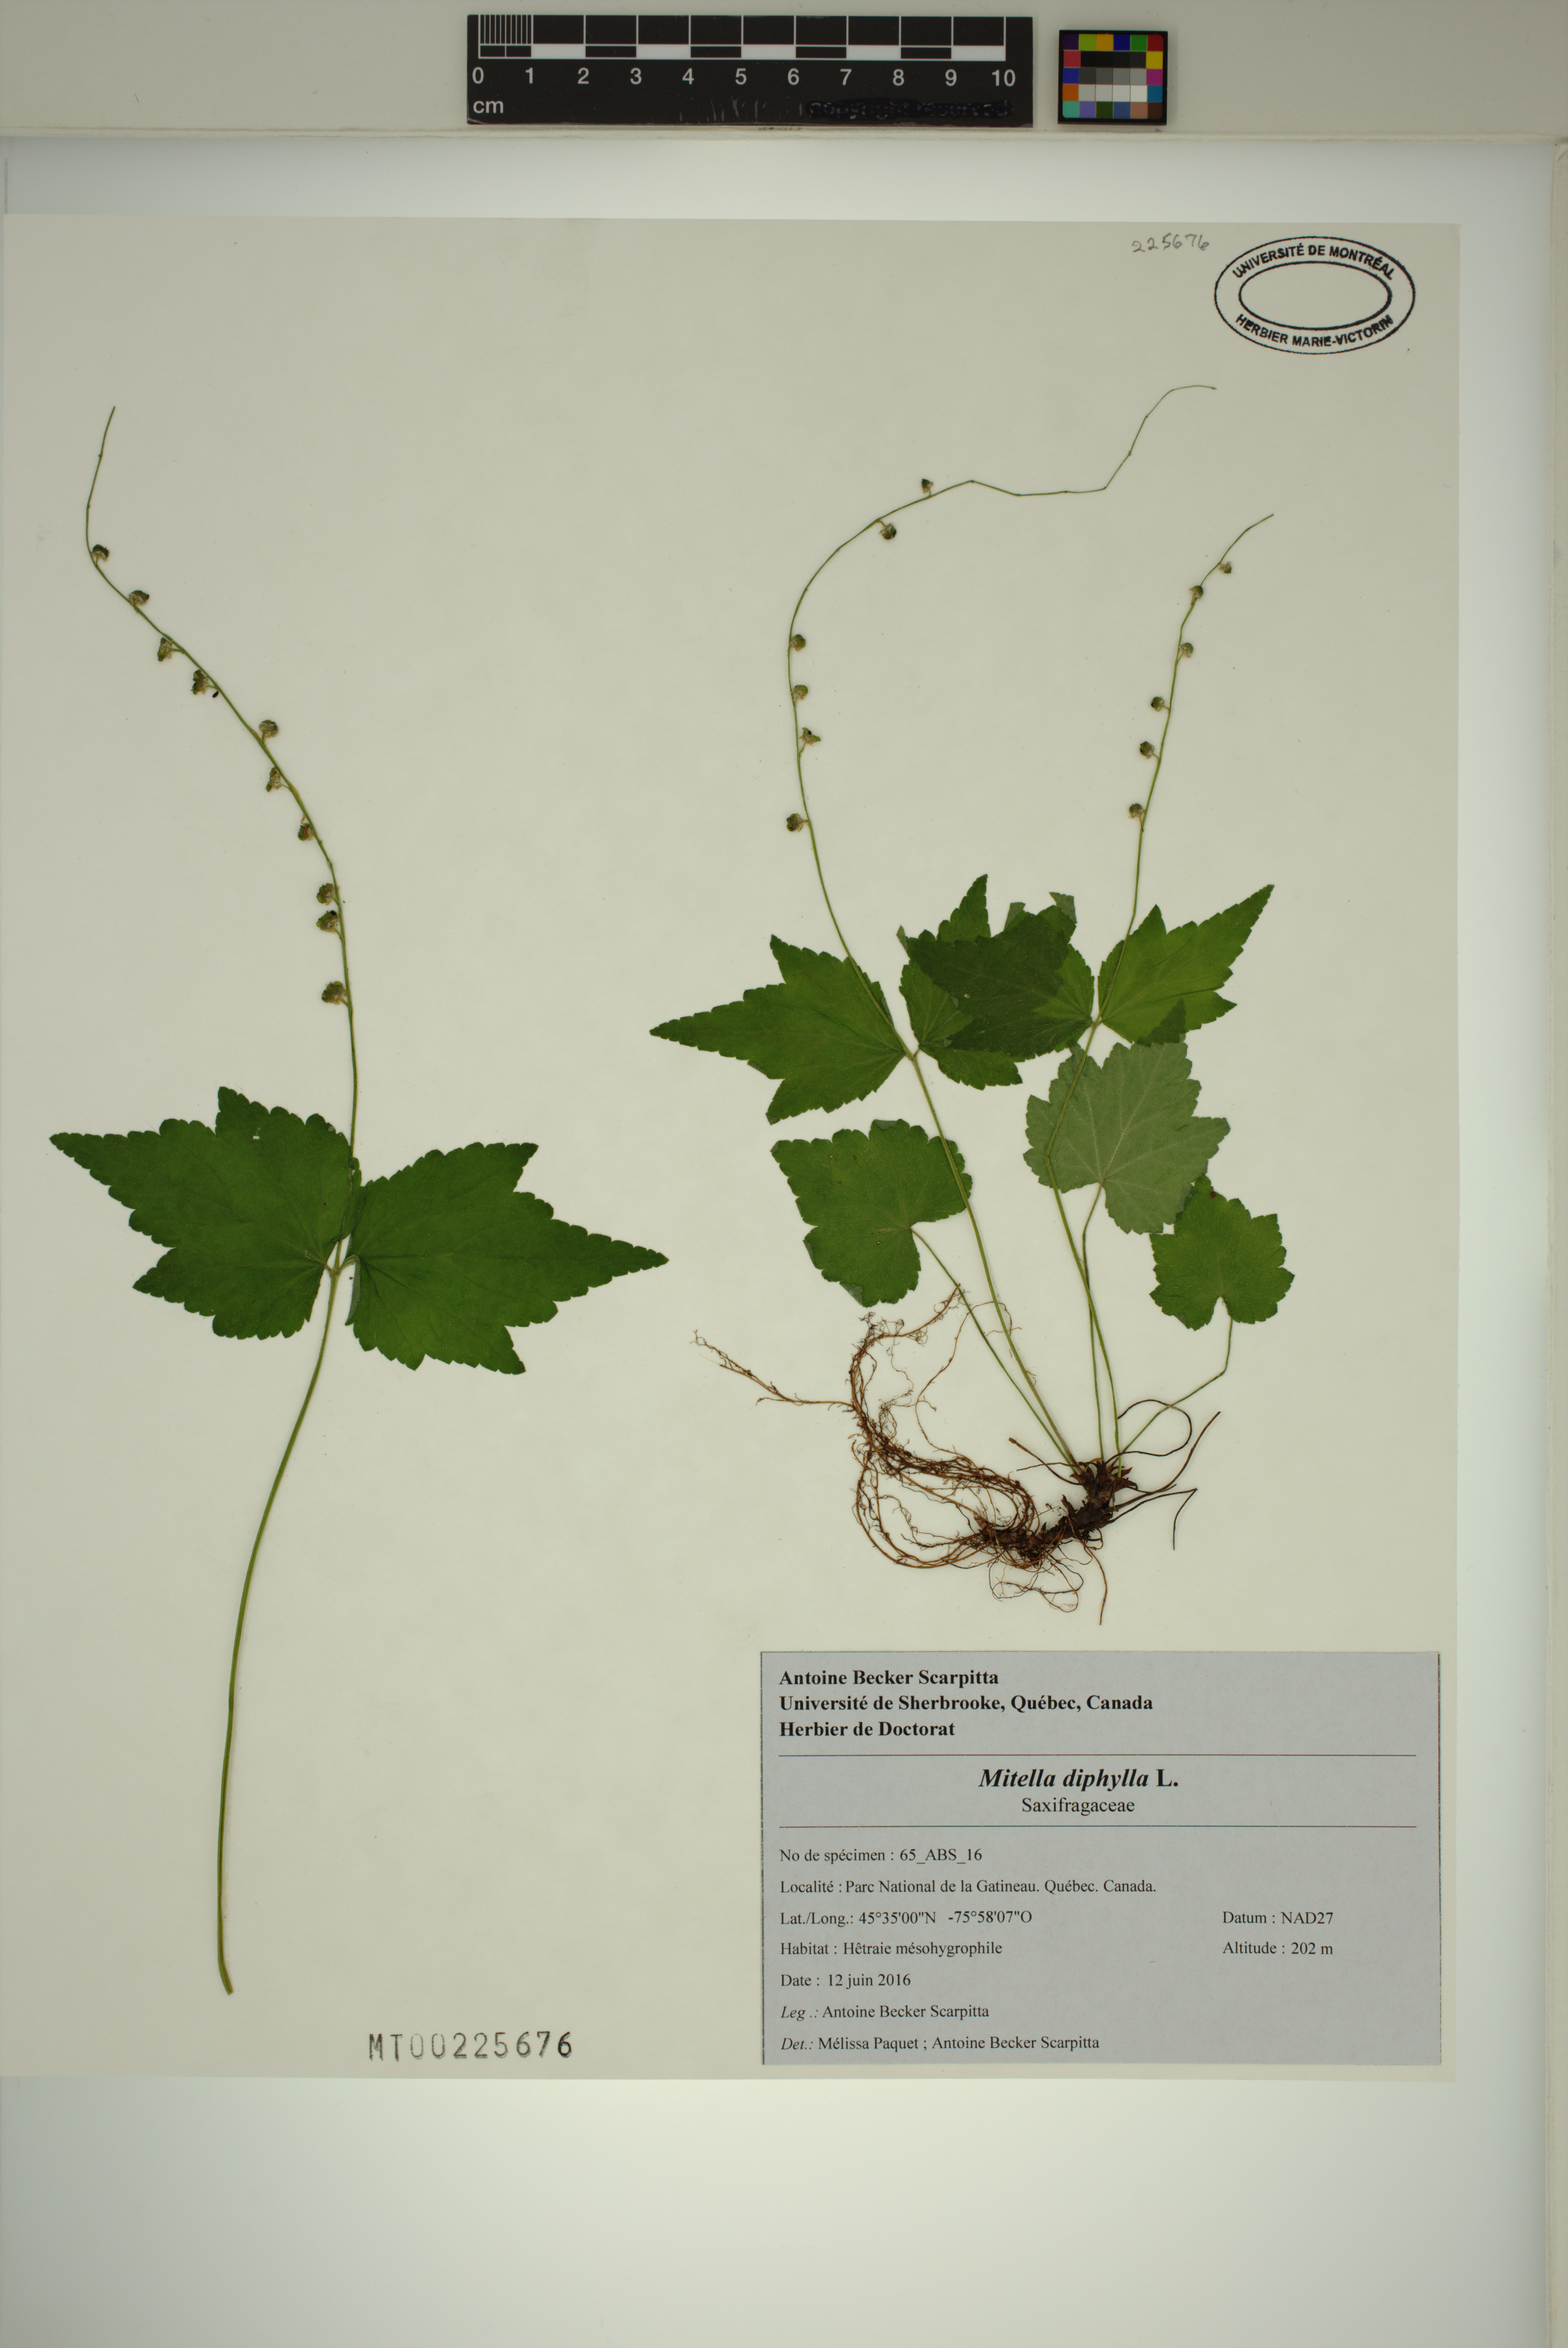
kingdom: Plantae
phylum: Tracheophyta
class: Magnoliopsida
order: Saxifragales
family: Saxifragaceae
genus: Mitella
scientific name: Mitella diphylla
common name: Coolwort
